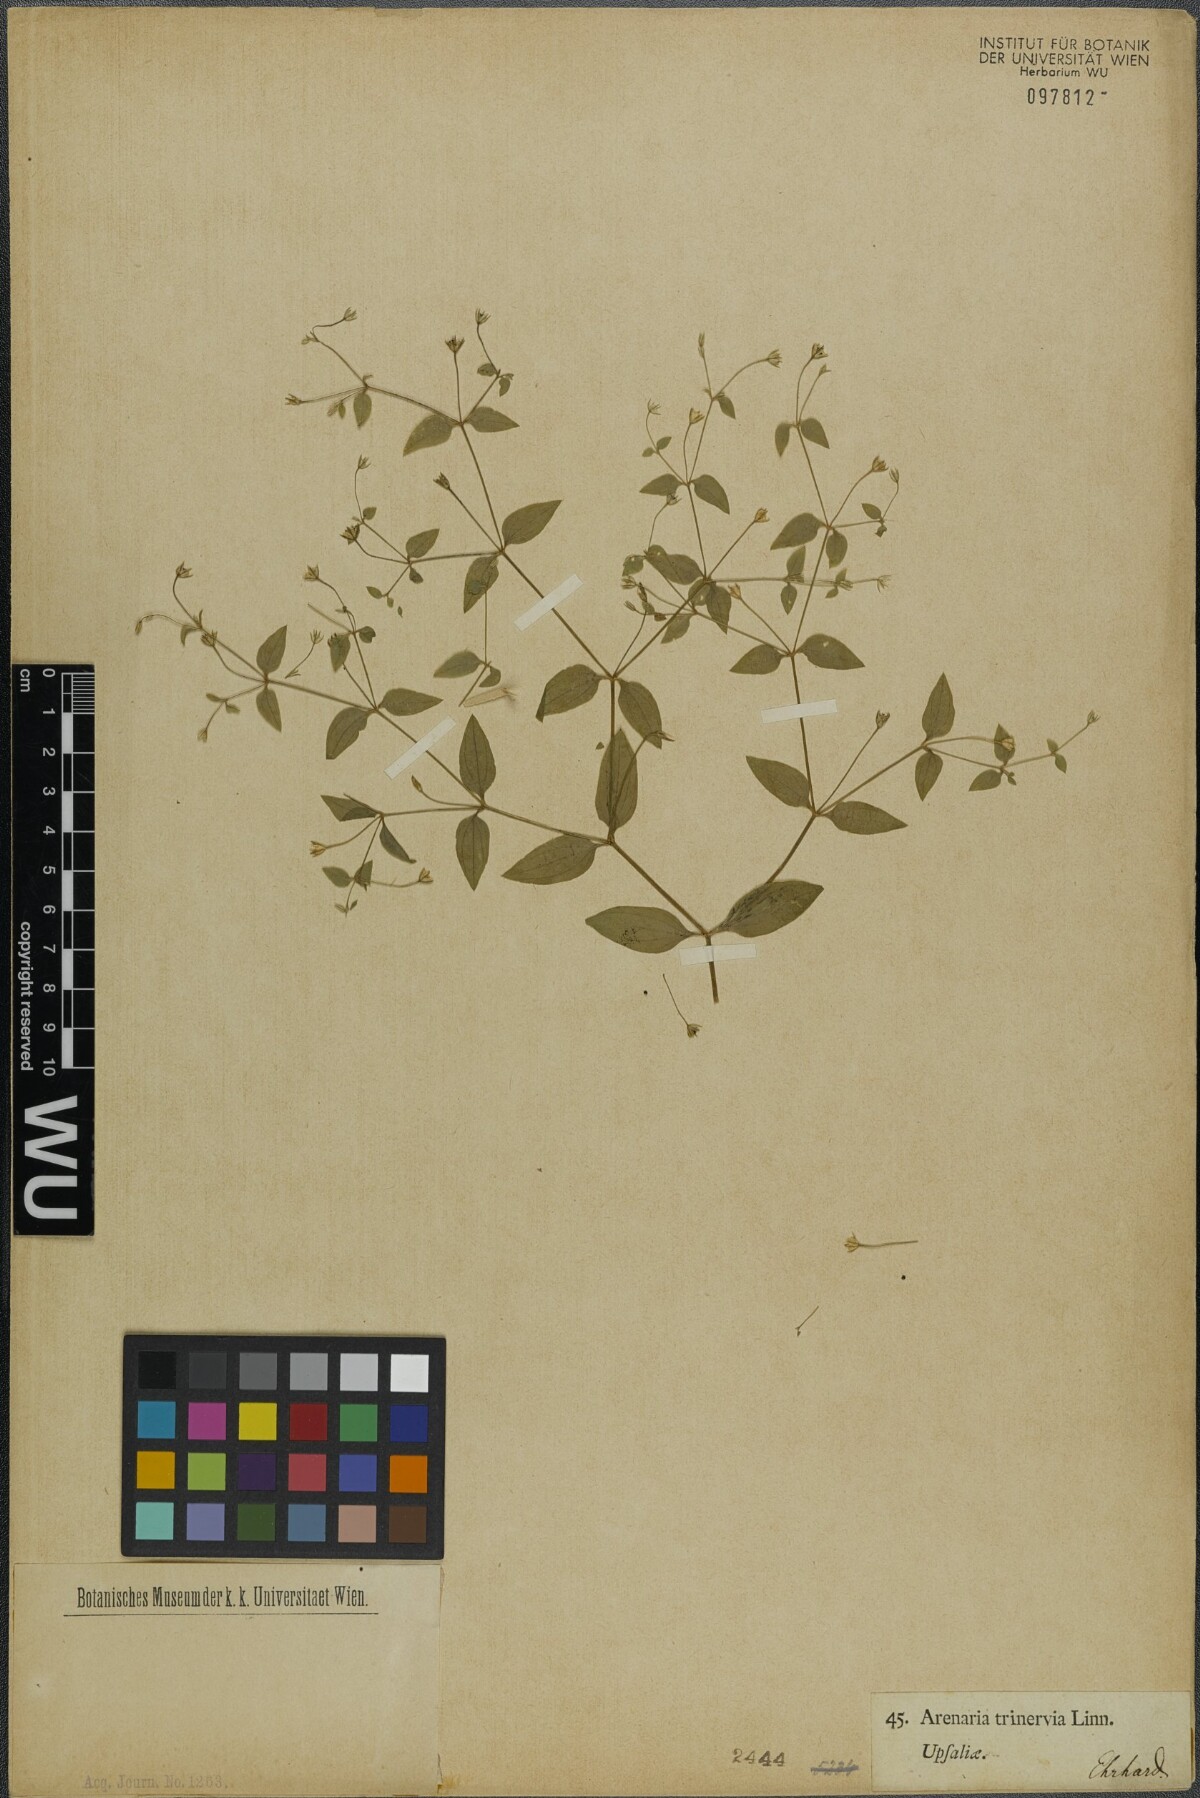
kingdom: Plantae
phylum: Tracheophyta
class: Magnoliopsida
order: Caryophyllales
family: Caryophyllaceae
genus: Moehringia
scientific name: Moehringia trinervia
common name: Three-nerved sandwort
